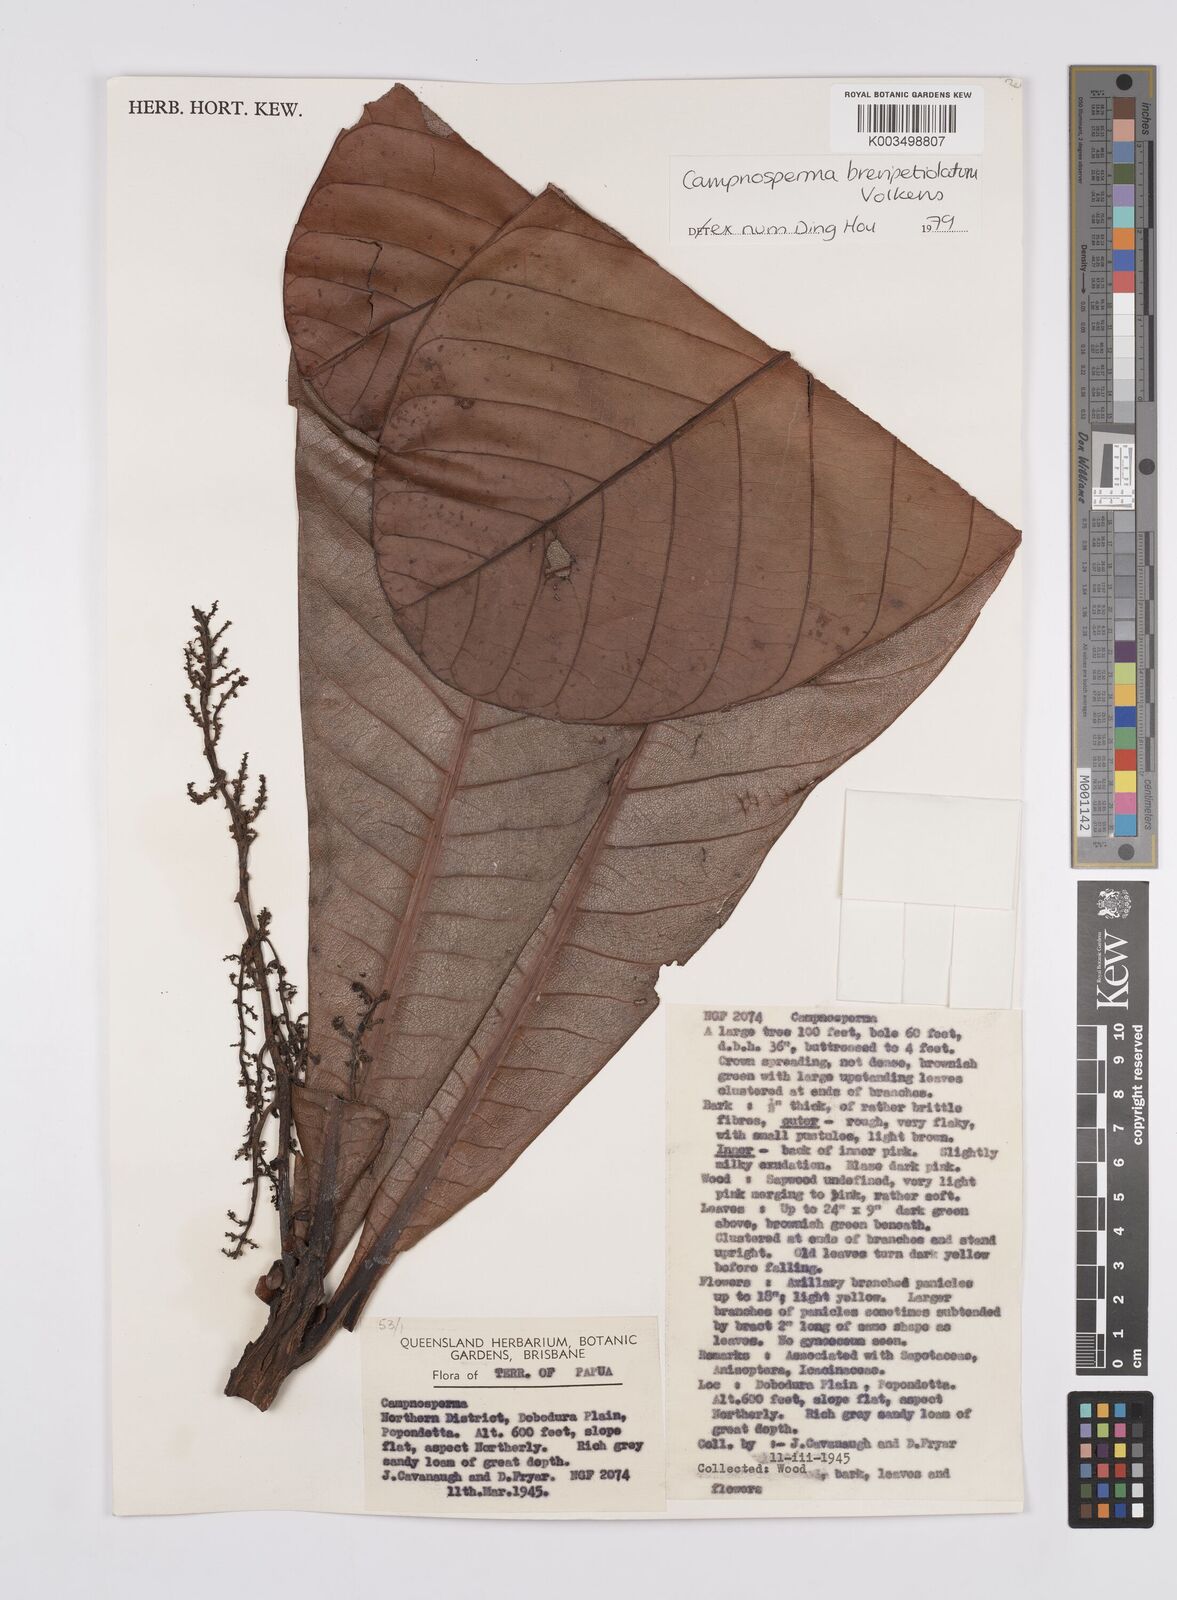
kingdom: Plantae
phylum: Tracheophyta
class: Magnoliopsida
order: Sapindales
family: Anacardiaceae
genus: Campnosperma
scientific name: Campnosperma brevipetiolatum
